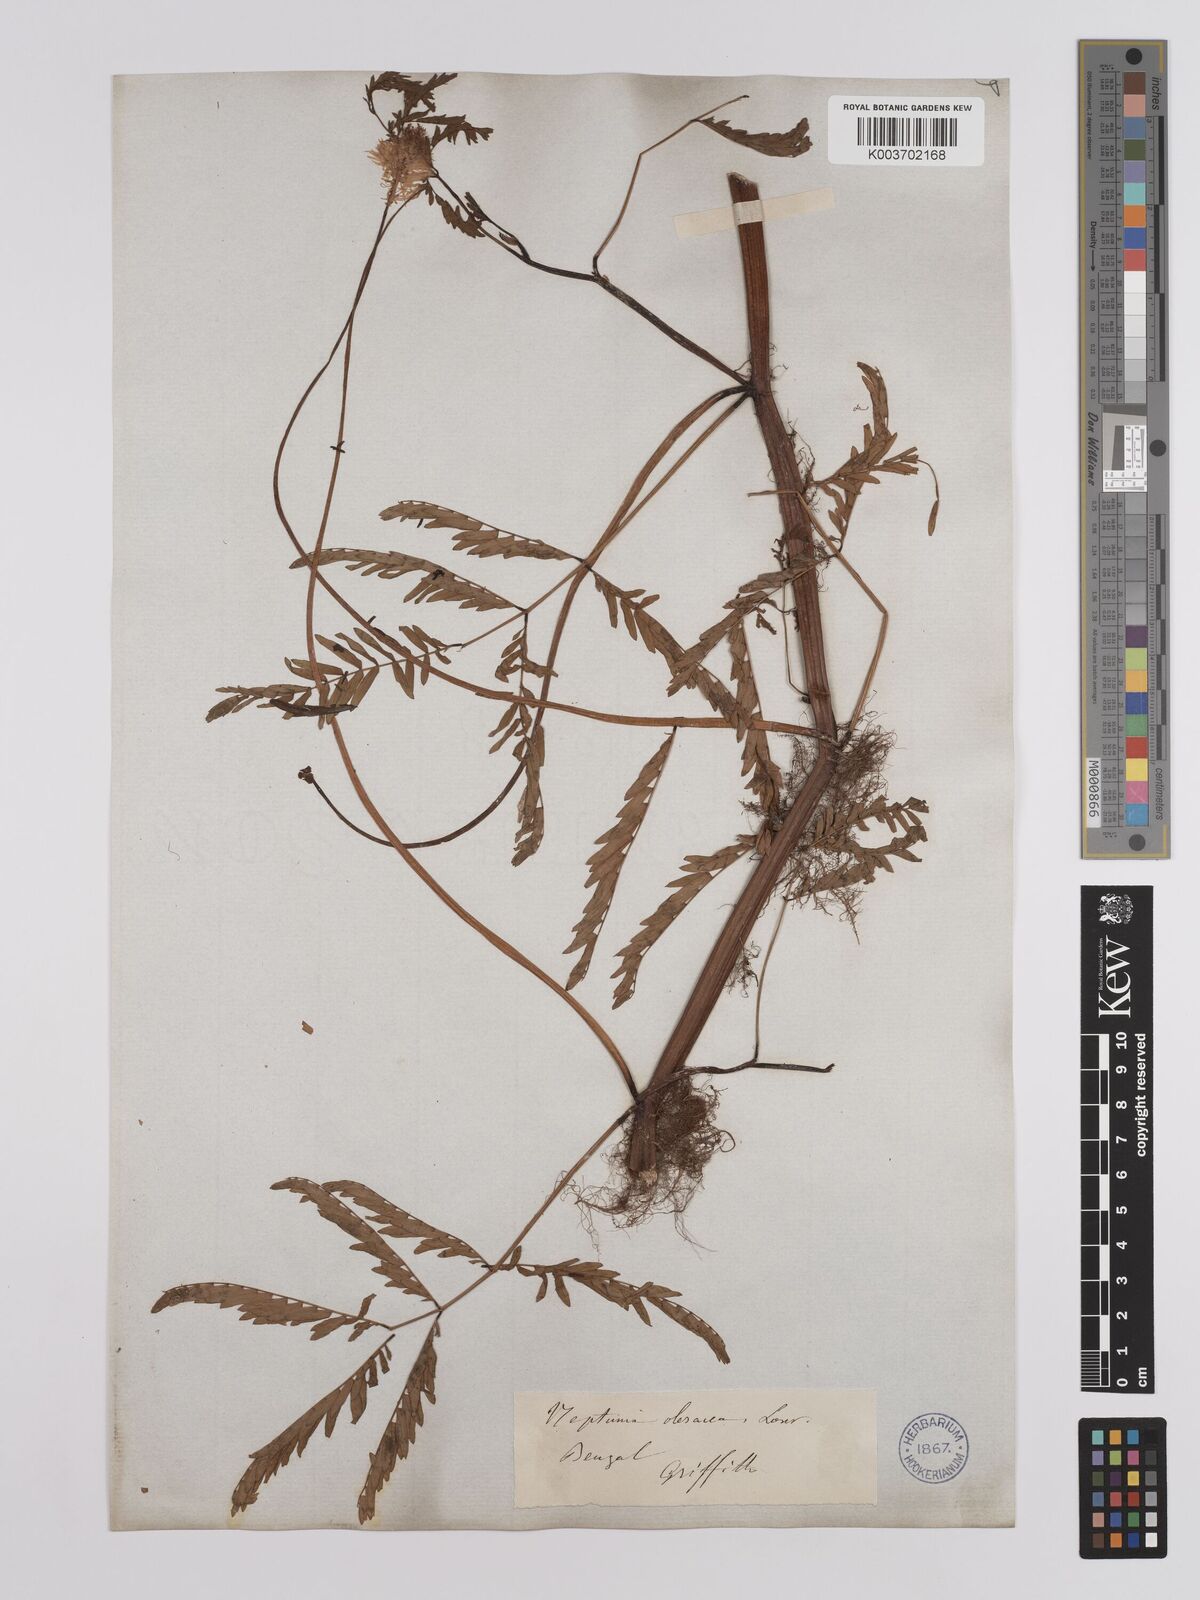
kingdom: Plantae
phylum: Tracheophyta
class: Magnoliopsida
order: Fabales
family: Fabaceae
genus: Neptunia
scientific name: Neptunia prostrata
